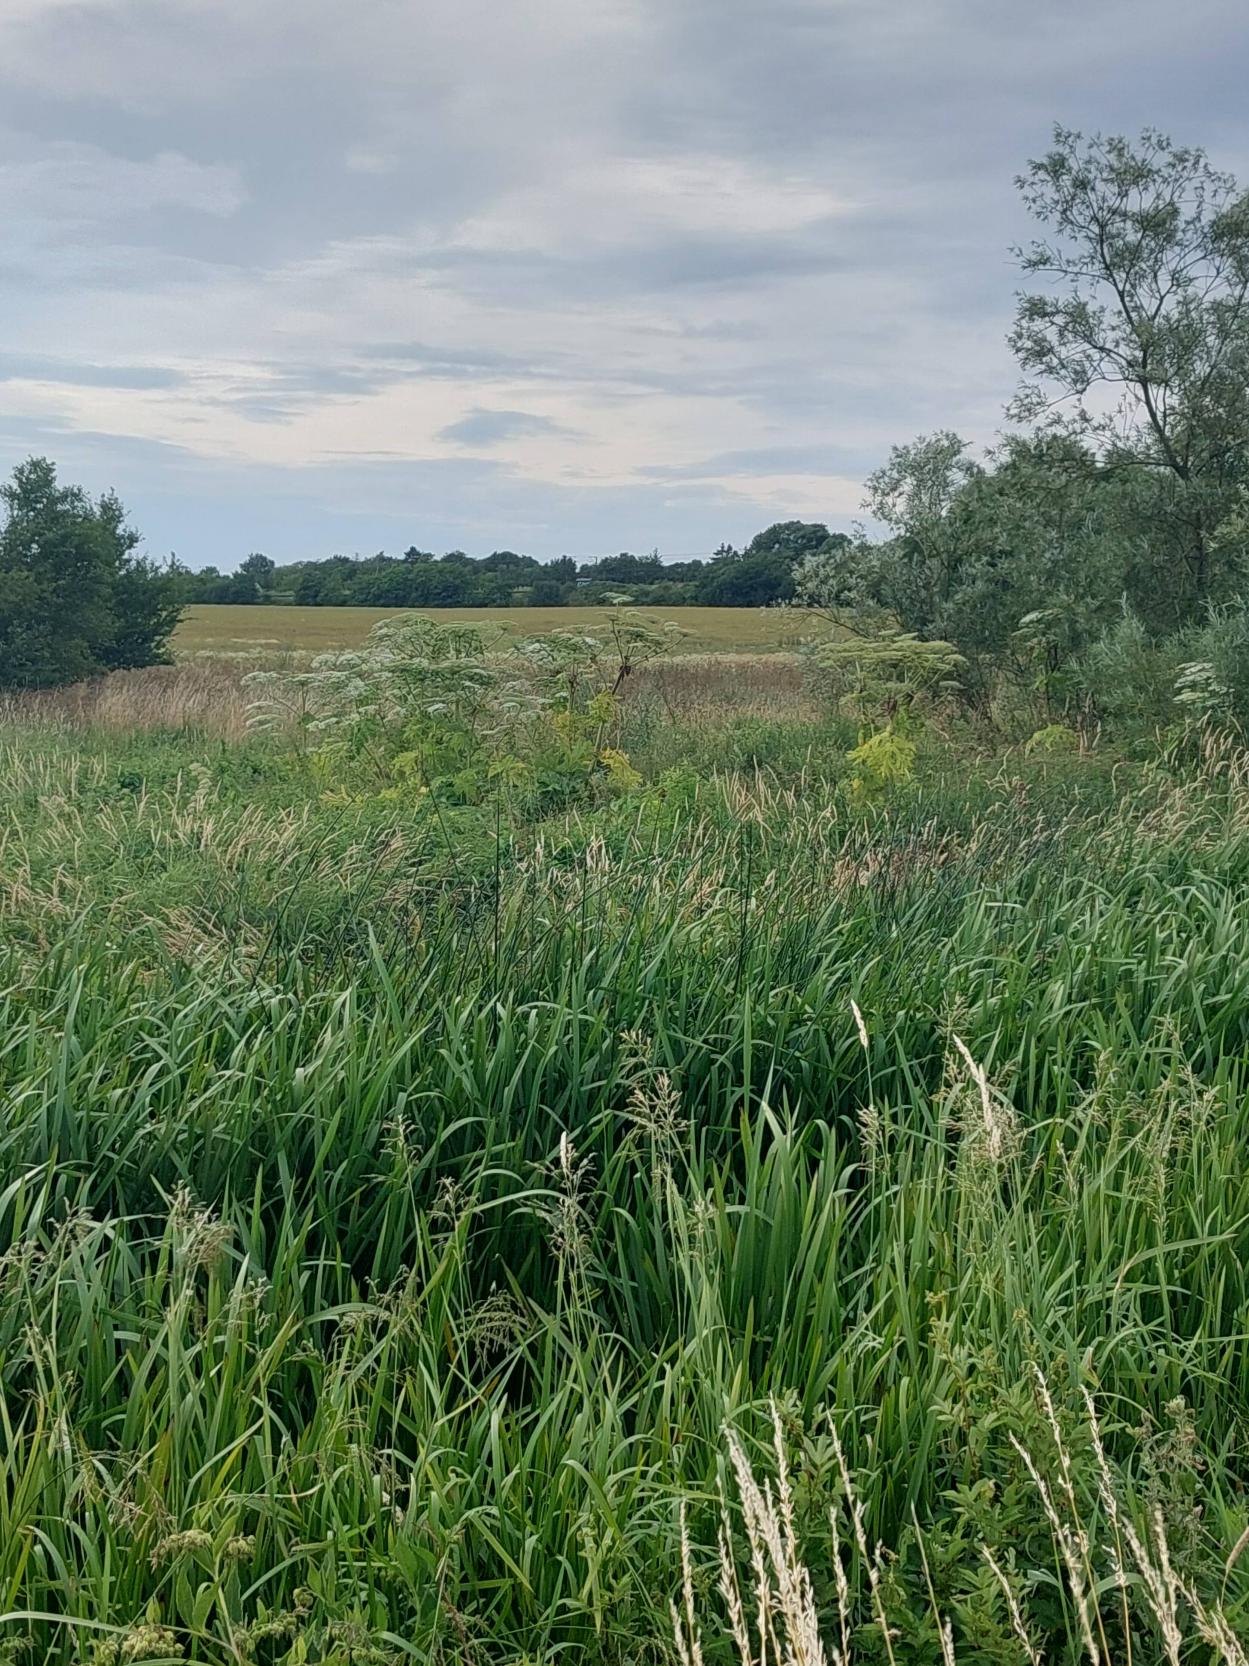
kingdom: Plantae
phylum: Tracheophyta
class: Magnoliopsida
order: Apiales
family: Apiaceae
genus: Heracleum
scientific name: Heracleum mantegazzianum
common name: Kæmpe-bjørneklo
